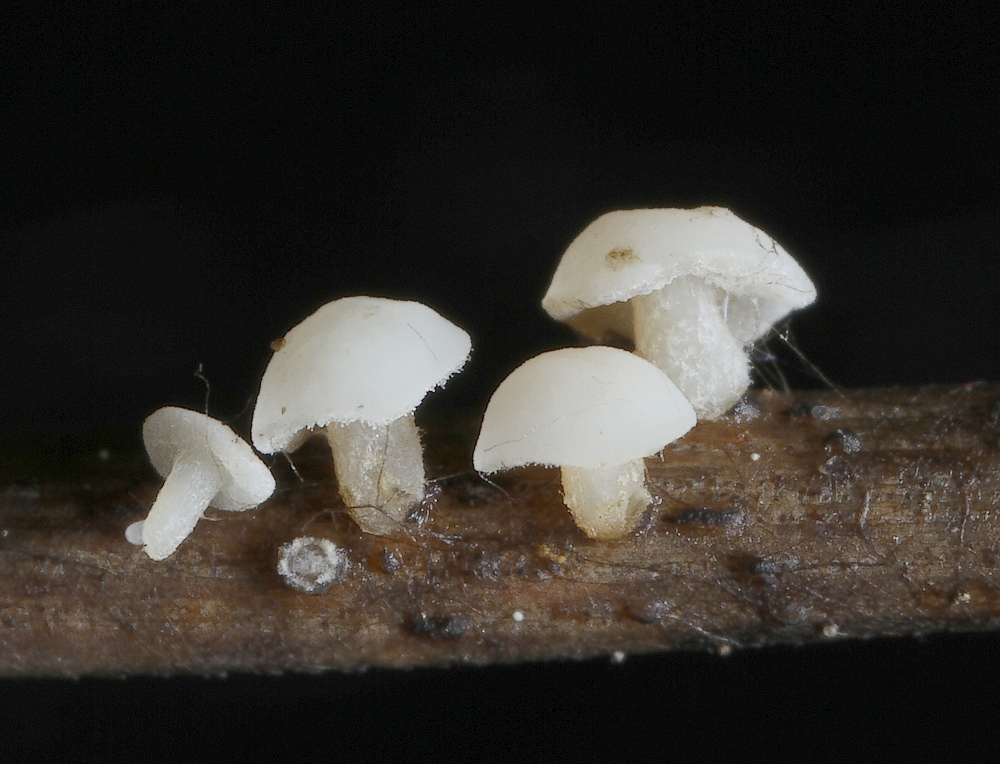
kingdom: Fungi
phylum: Ascomycota
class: Leotiomycetes
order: Helotiales
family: Helotiaceae
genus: Hymenoscyphus
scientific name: Hymenoscyphus subtilis
